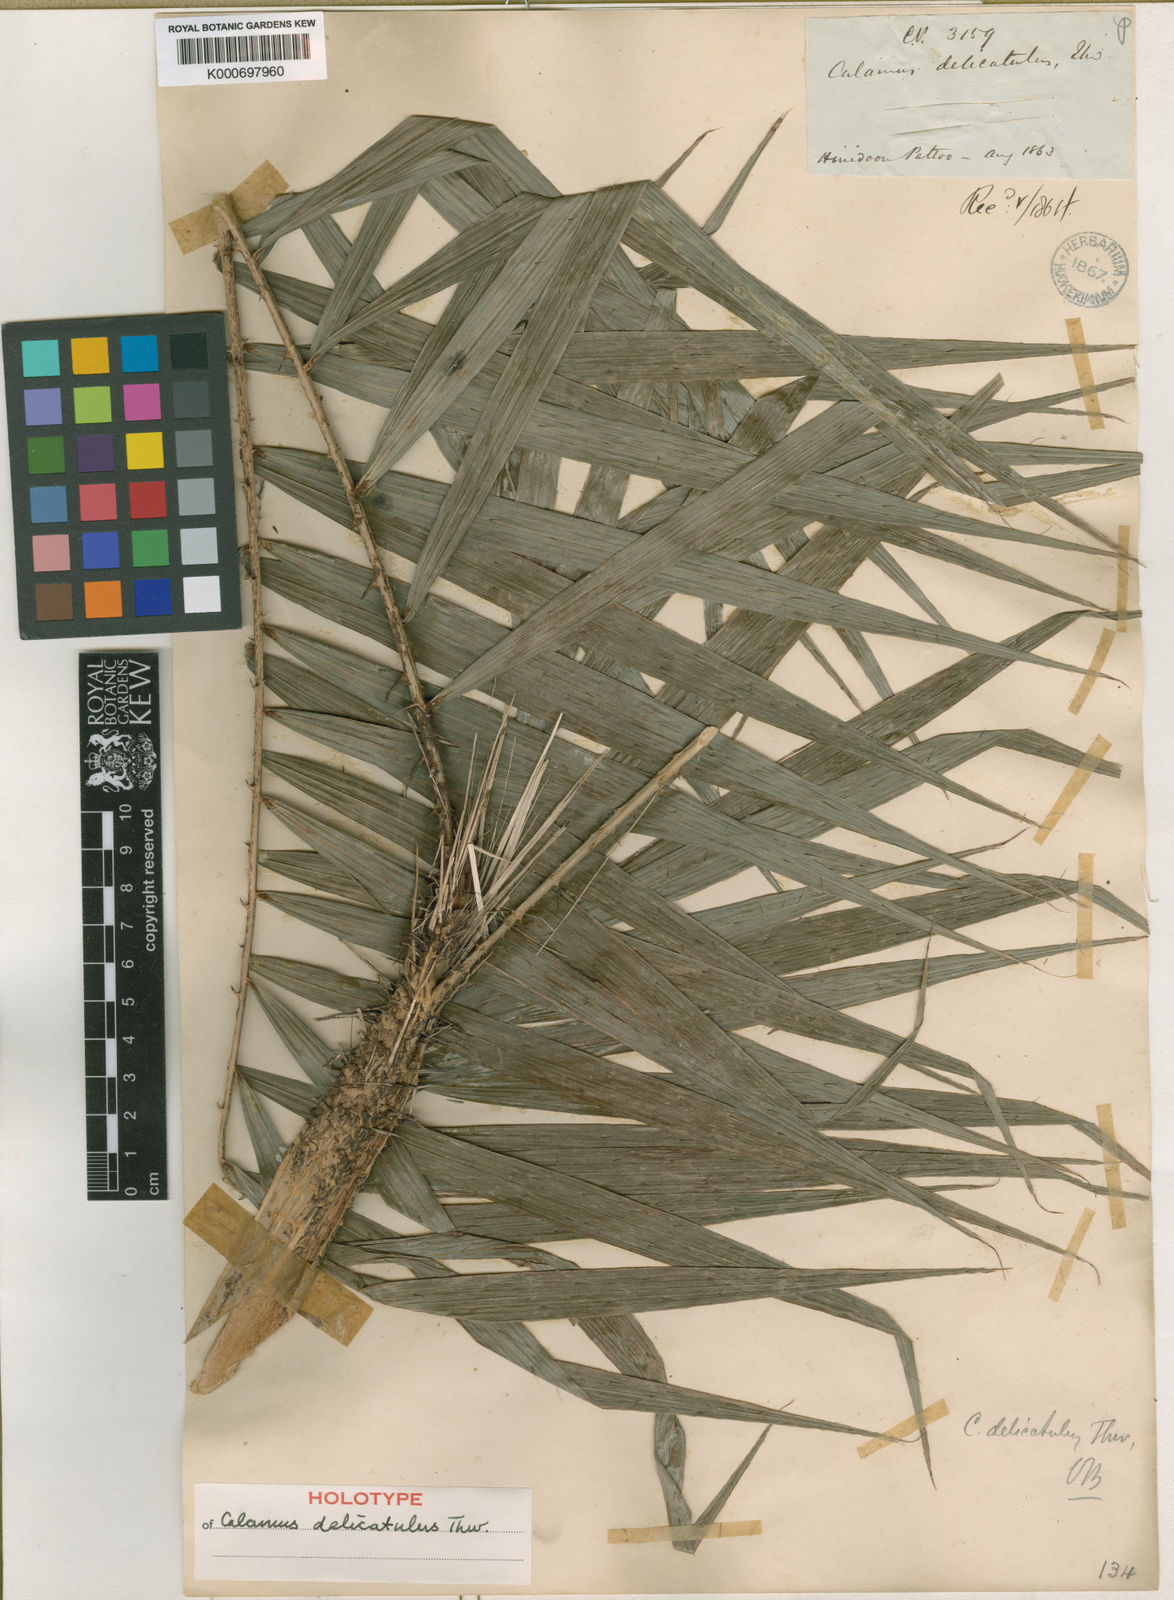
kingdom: Plantae
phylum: Tracheophyta
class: Liliopsida
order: Arecales
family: Arecaceae
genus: Calamus
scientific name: Calamus delicatulus
